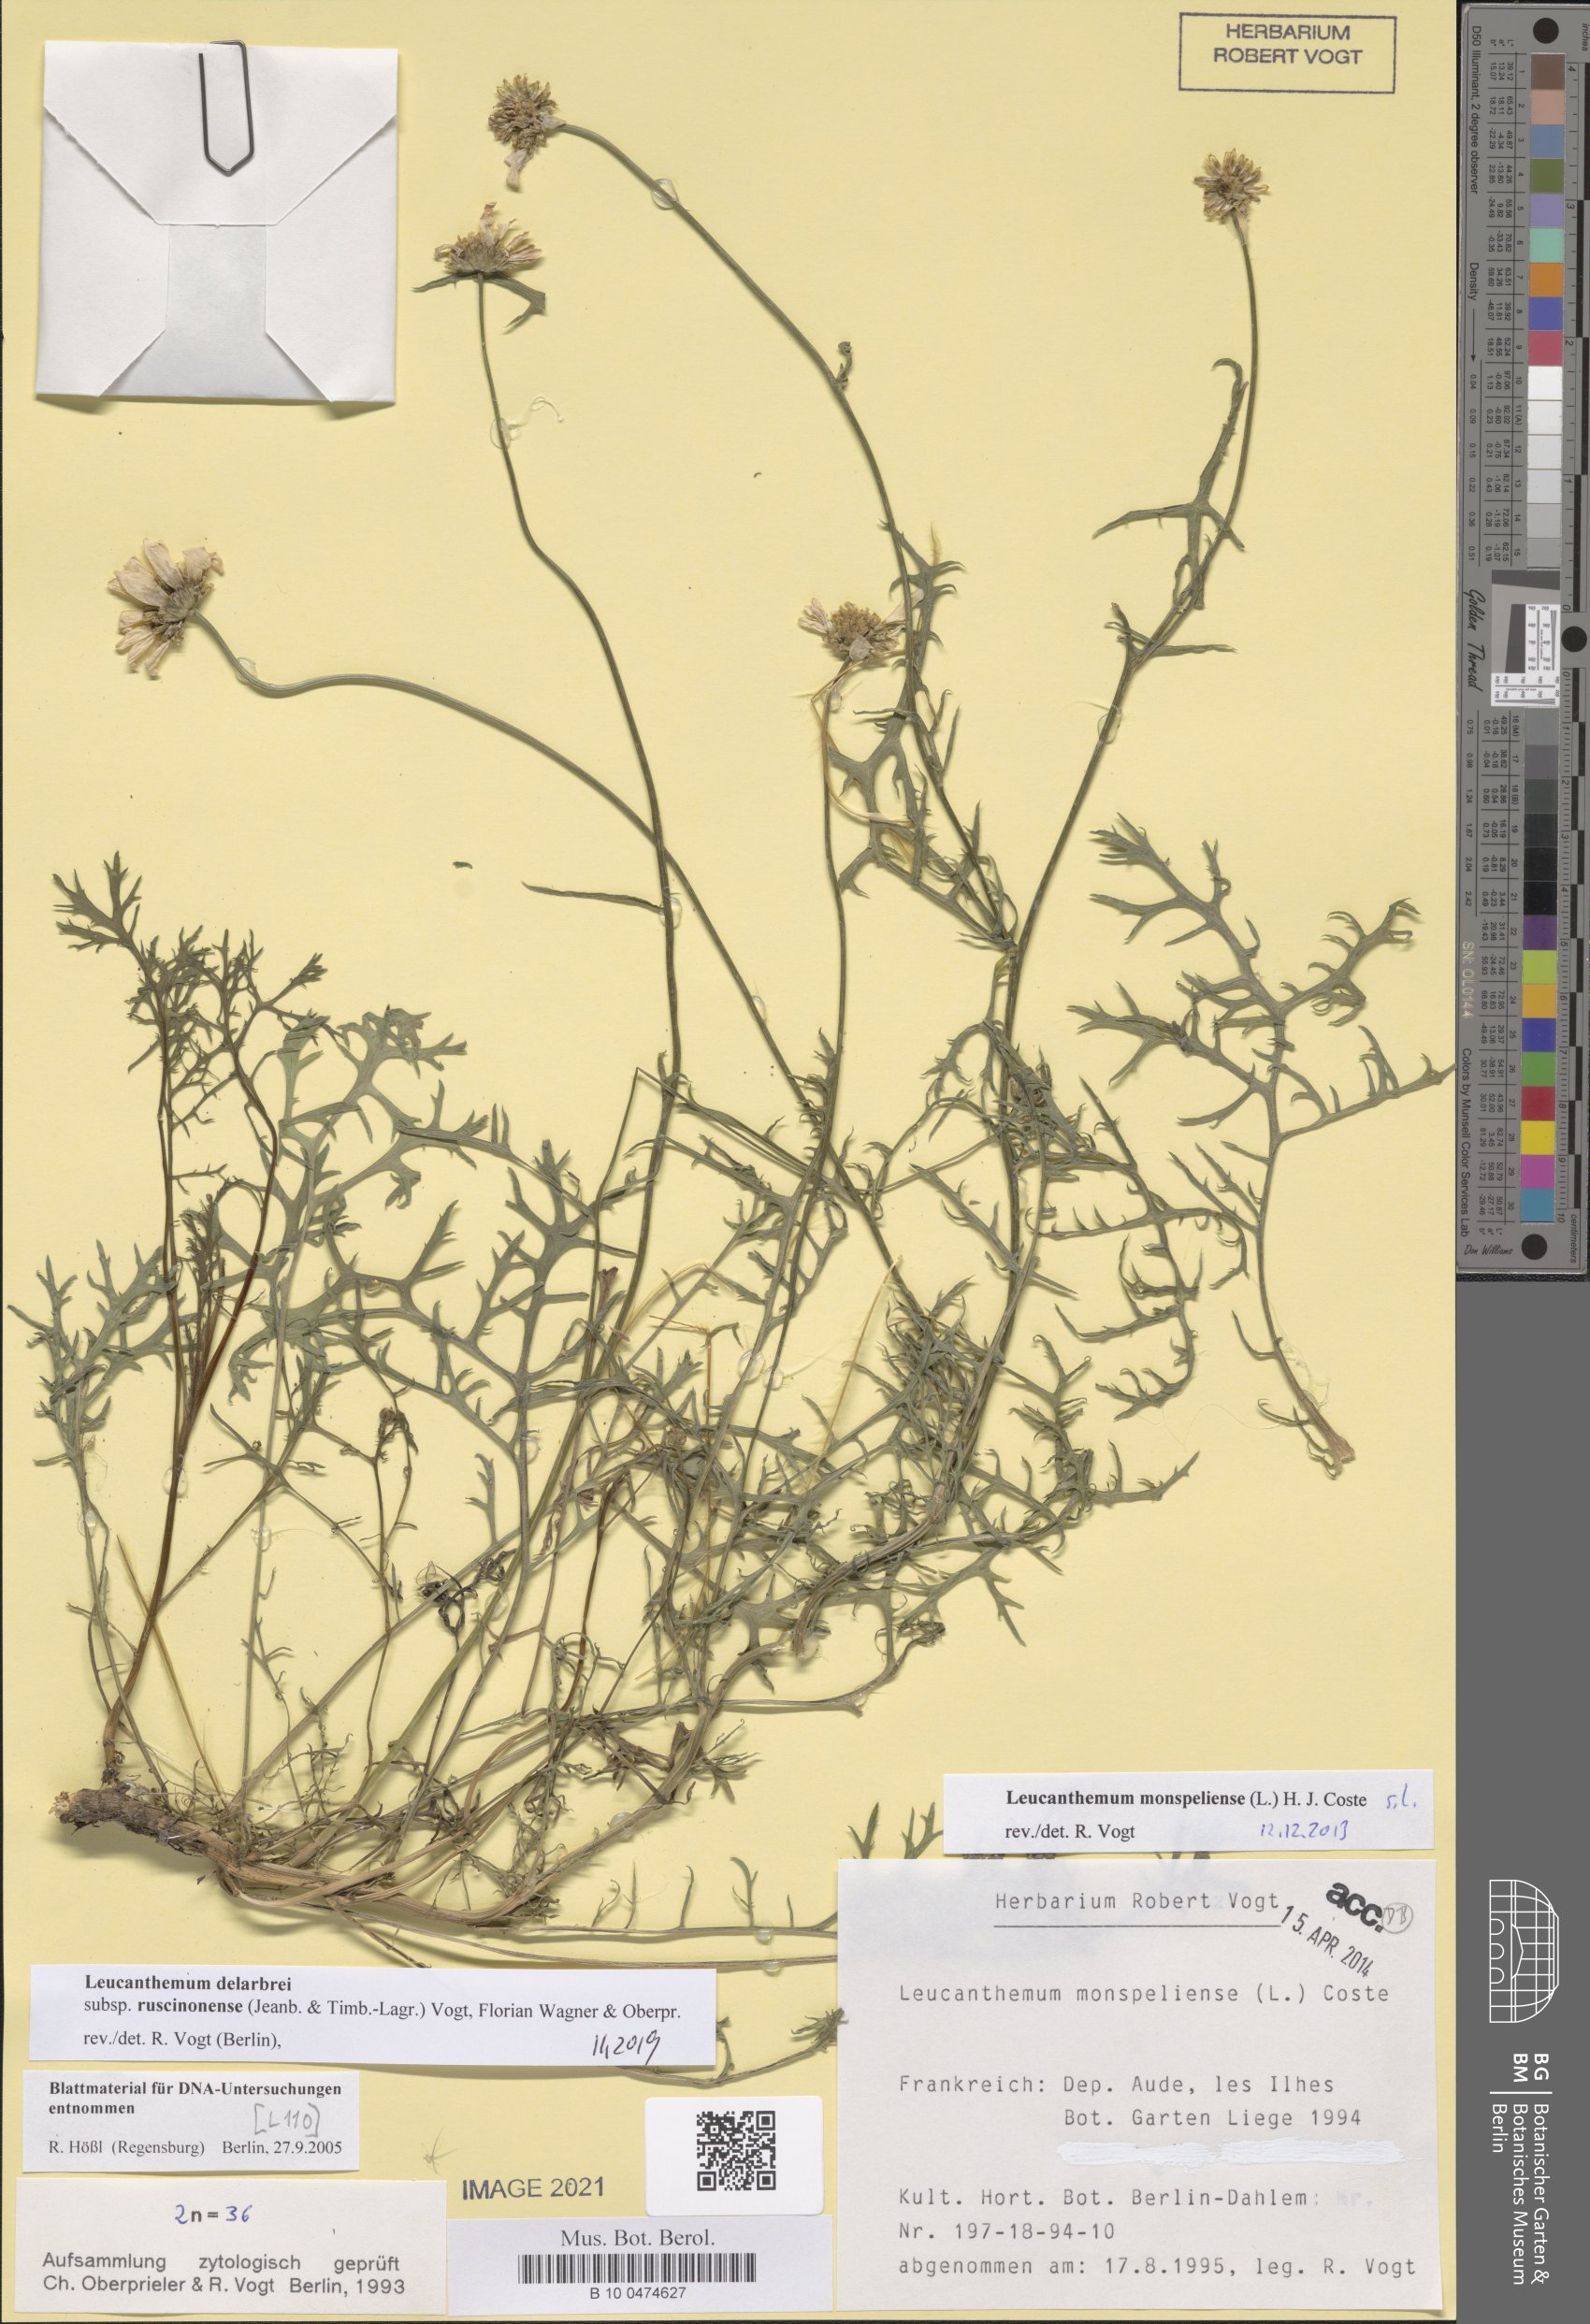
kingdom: Plantae
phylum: Tracheophyta
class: Magnoliopsida
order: Asterales
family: Asteraceae
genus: Leucanthemum
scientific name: Leucanthemum delarbrei
